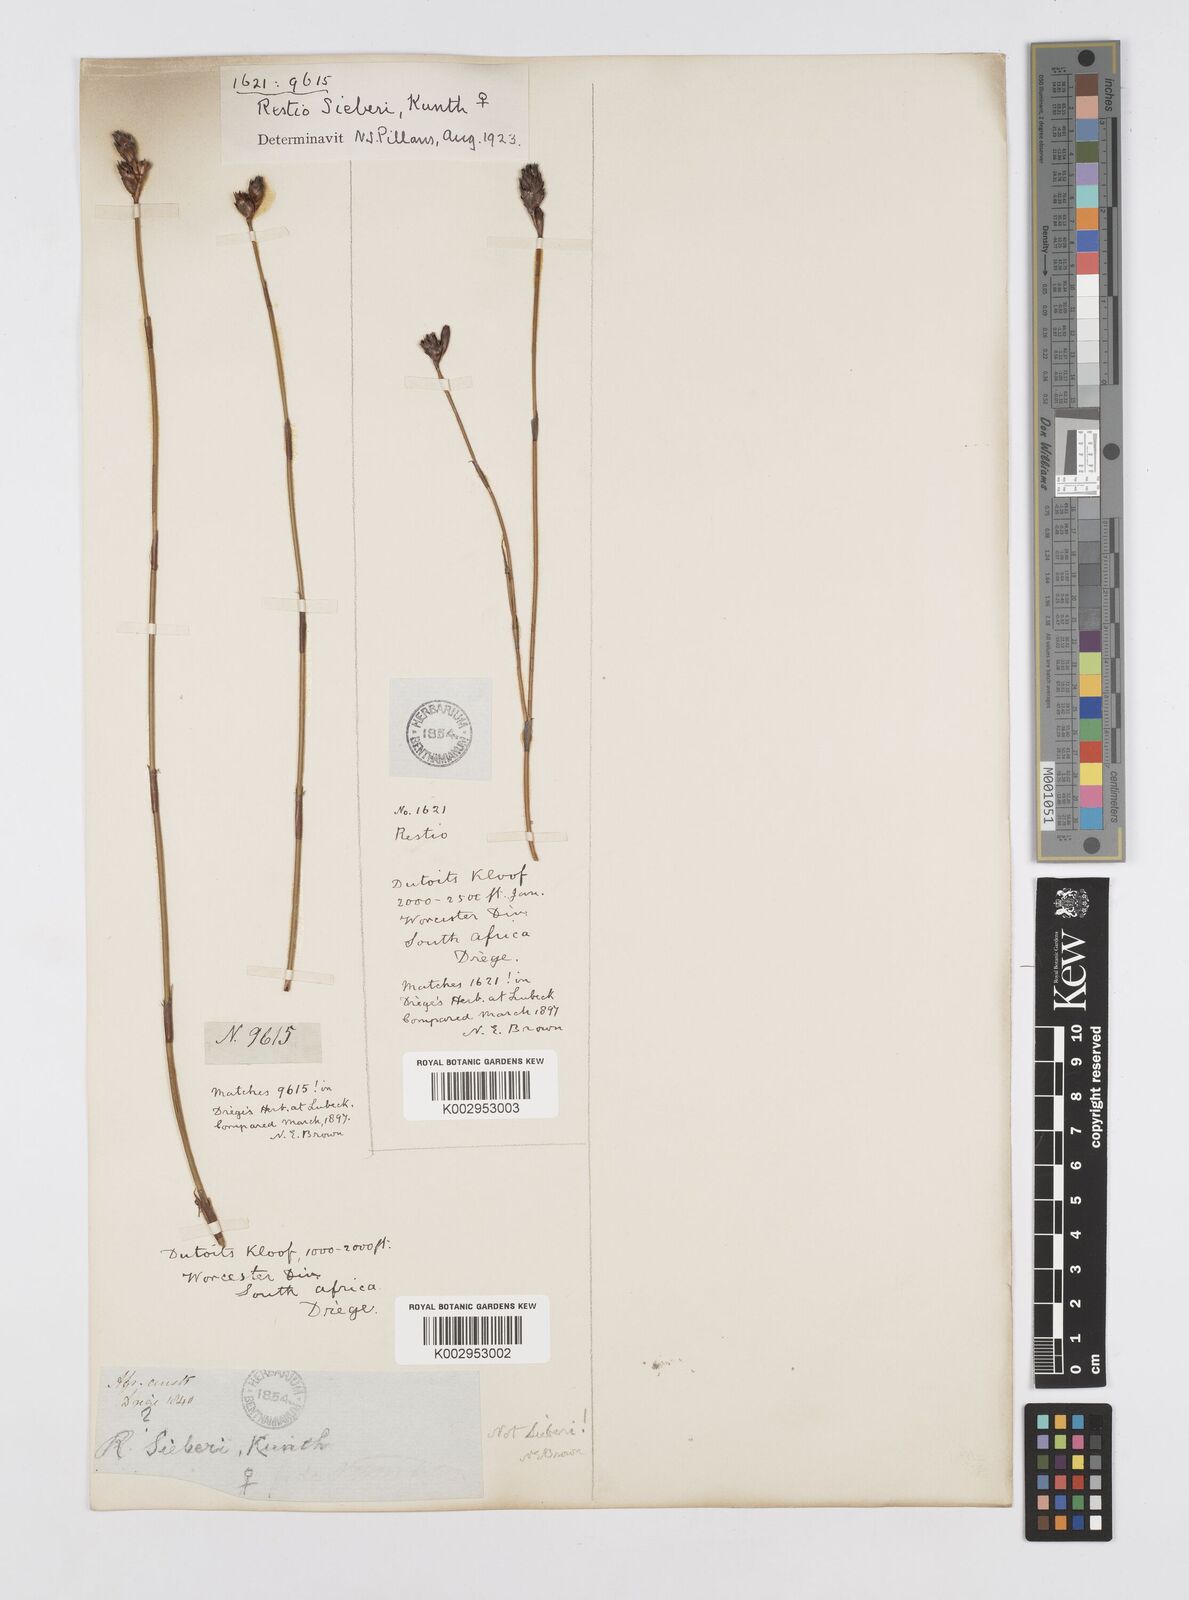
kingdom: Plantae
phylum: Tracheophyta
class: Liliopsida
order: Poales
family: Restionaceae
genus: Restio
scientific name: Restio sieberi
